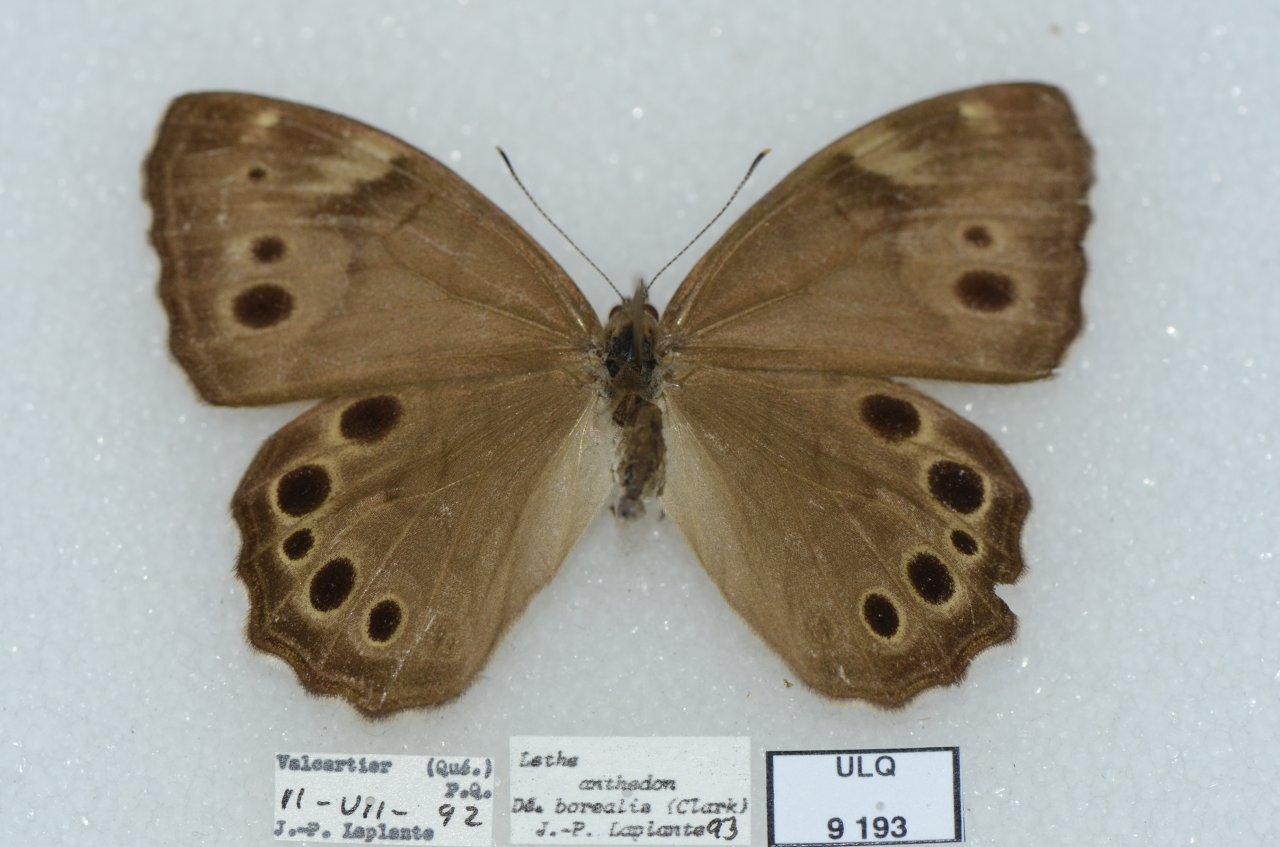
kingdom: Animalia
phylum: Arthropoda
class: Insecta
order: Lepidoptera
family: Nymphalidae
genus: Lethe
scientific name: Lethe anthedon
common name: Northern Pearly-Eye
